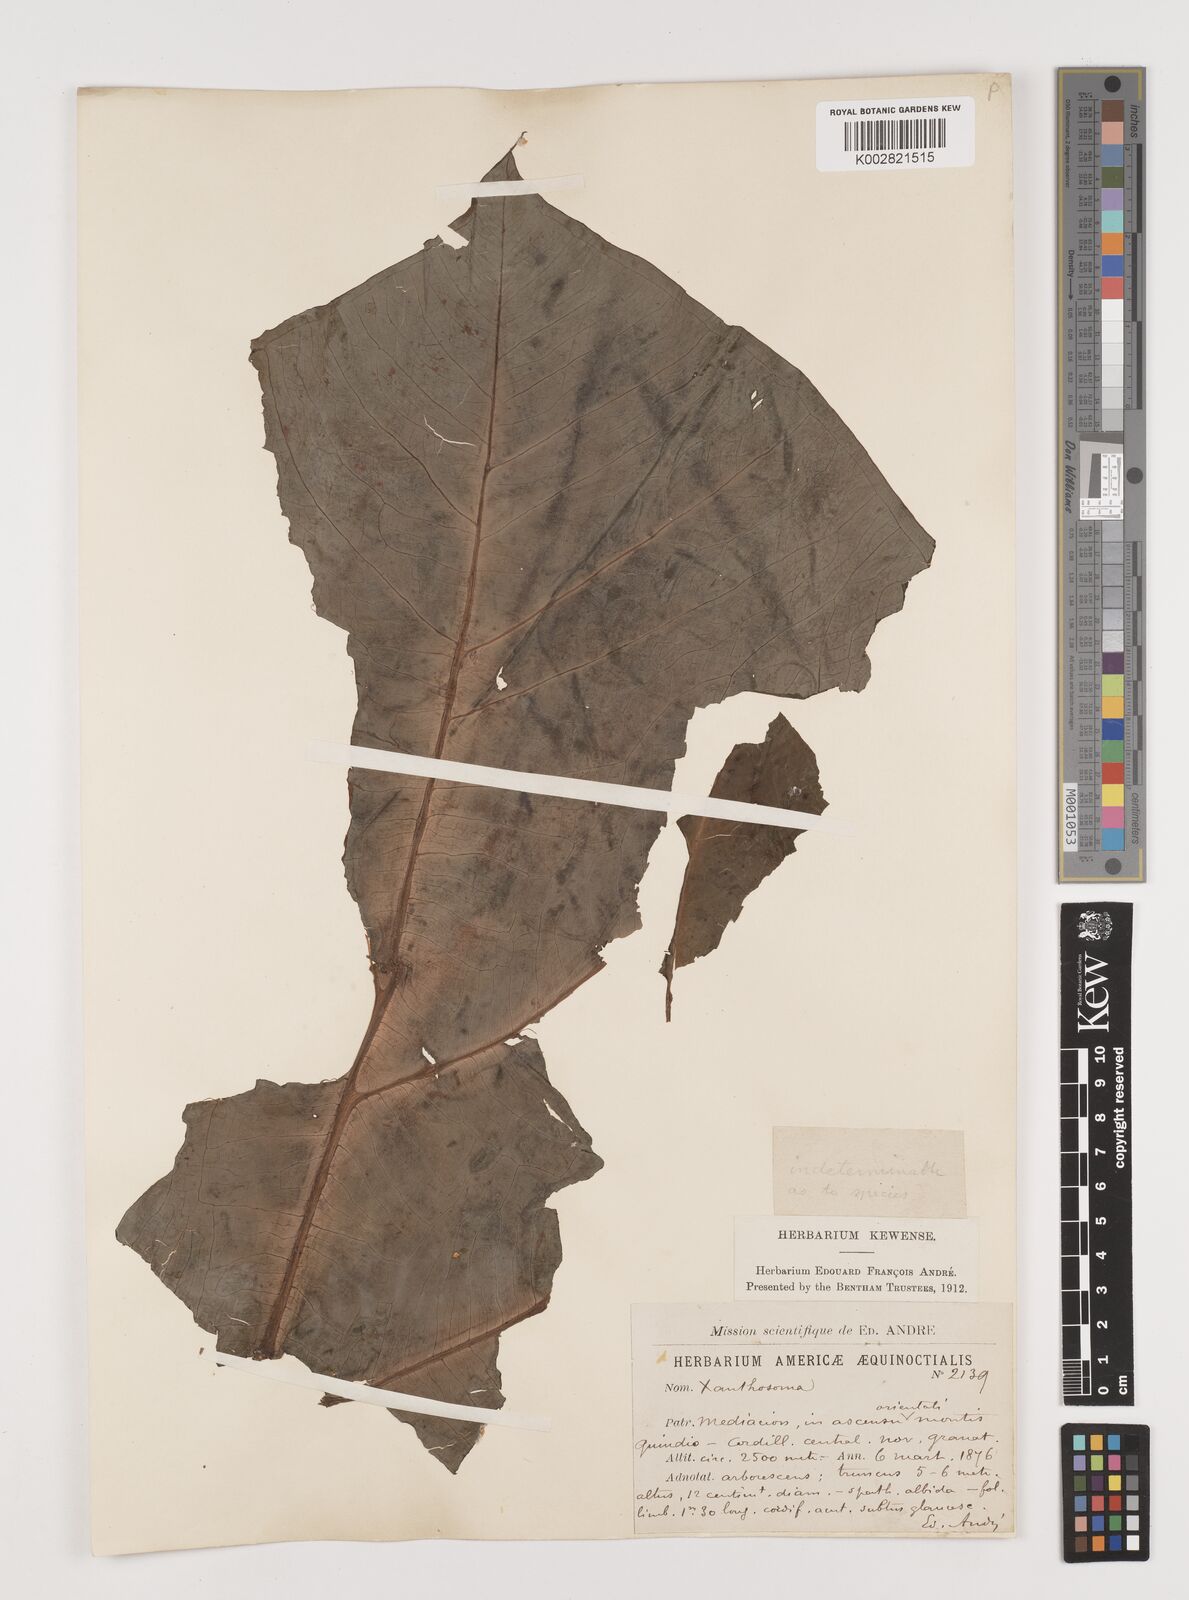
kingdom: Plantae
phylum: Tracheophyta
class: Liliopsida
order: Alismatales
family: Araceae
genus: Xanthosoma
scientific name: Xanthosoma
